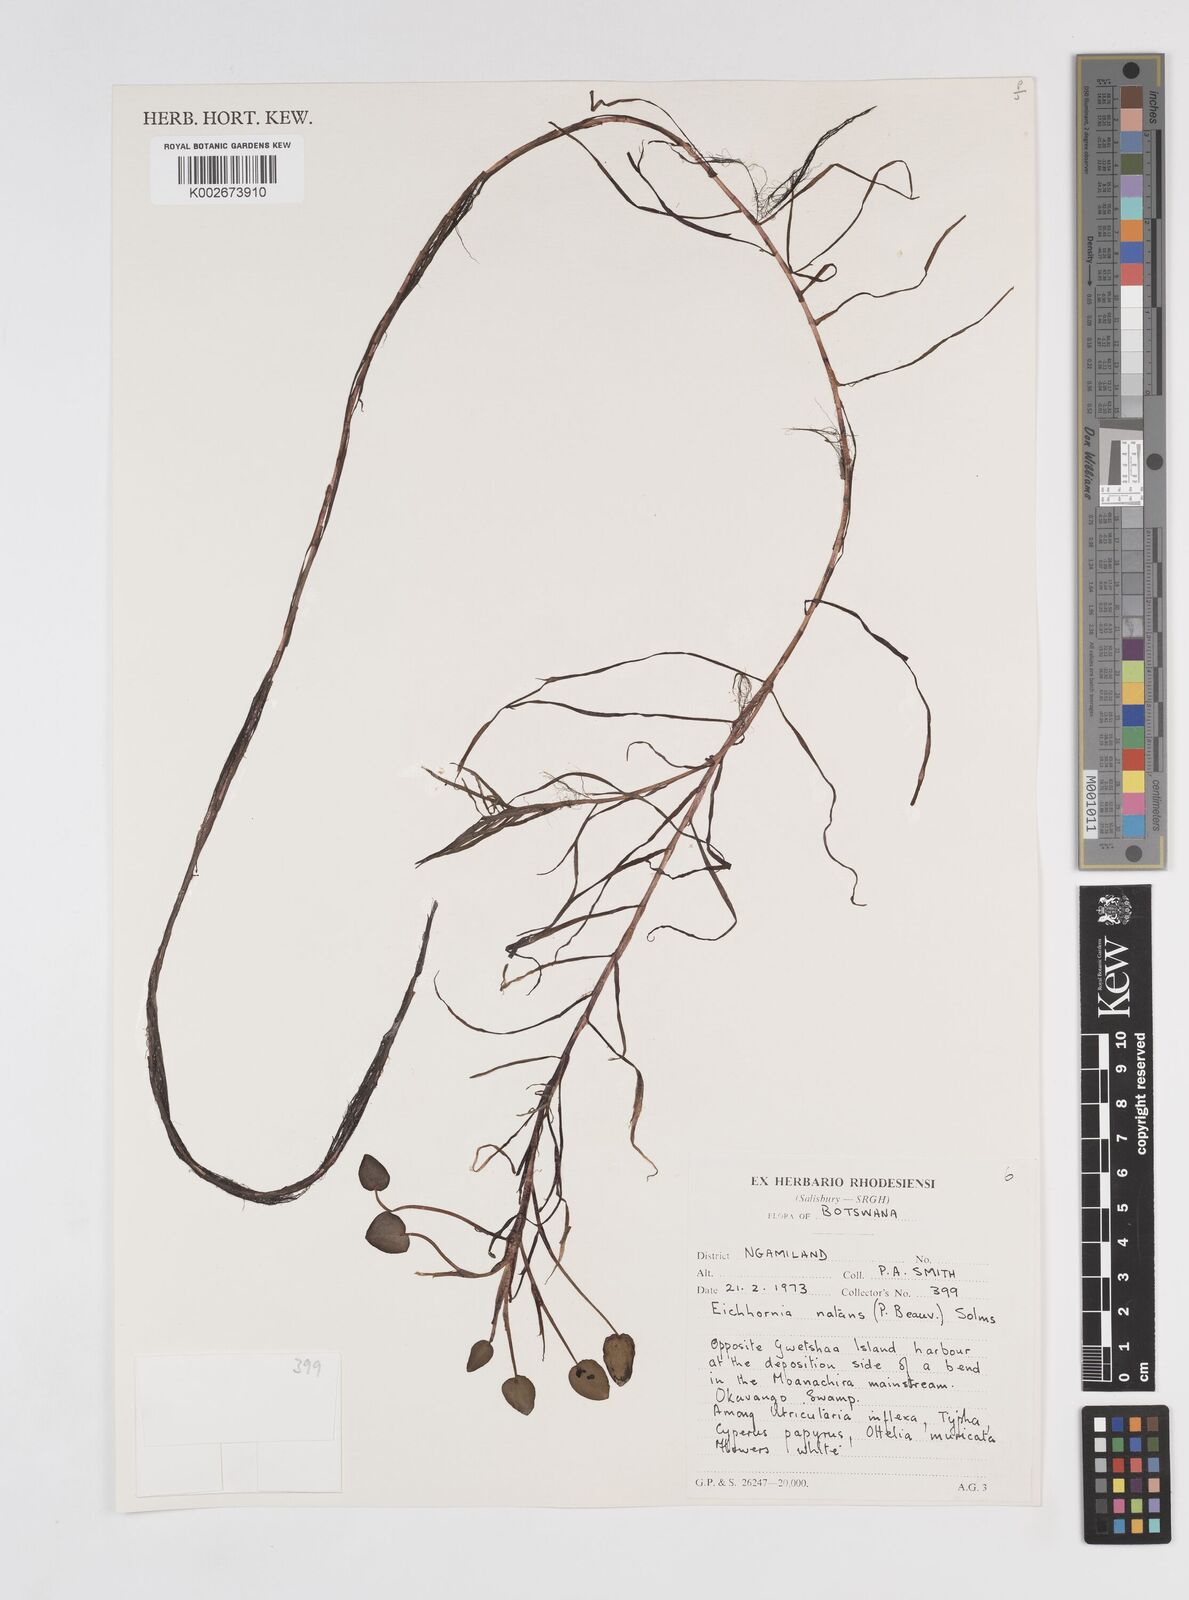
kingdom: Plantae
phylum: Tracheophyta
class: Liliopsida
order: Commelinales
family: Pontederiaceae
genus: Pontederia
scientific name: Pontederia natans
